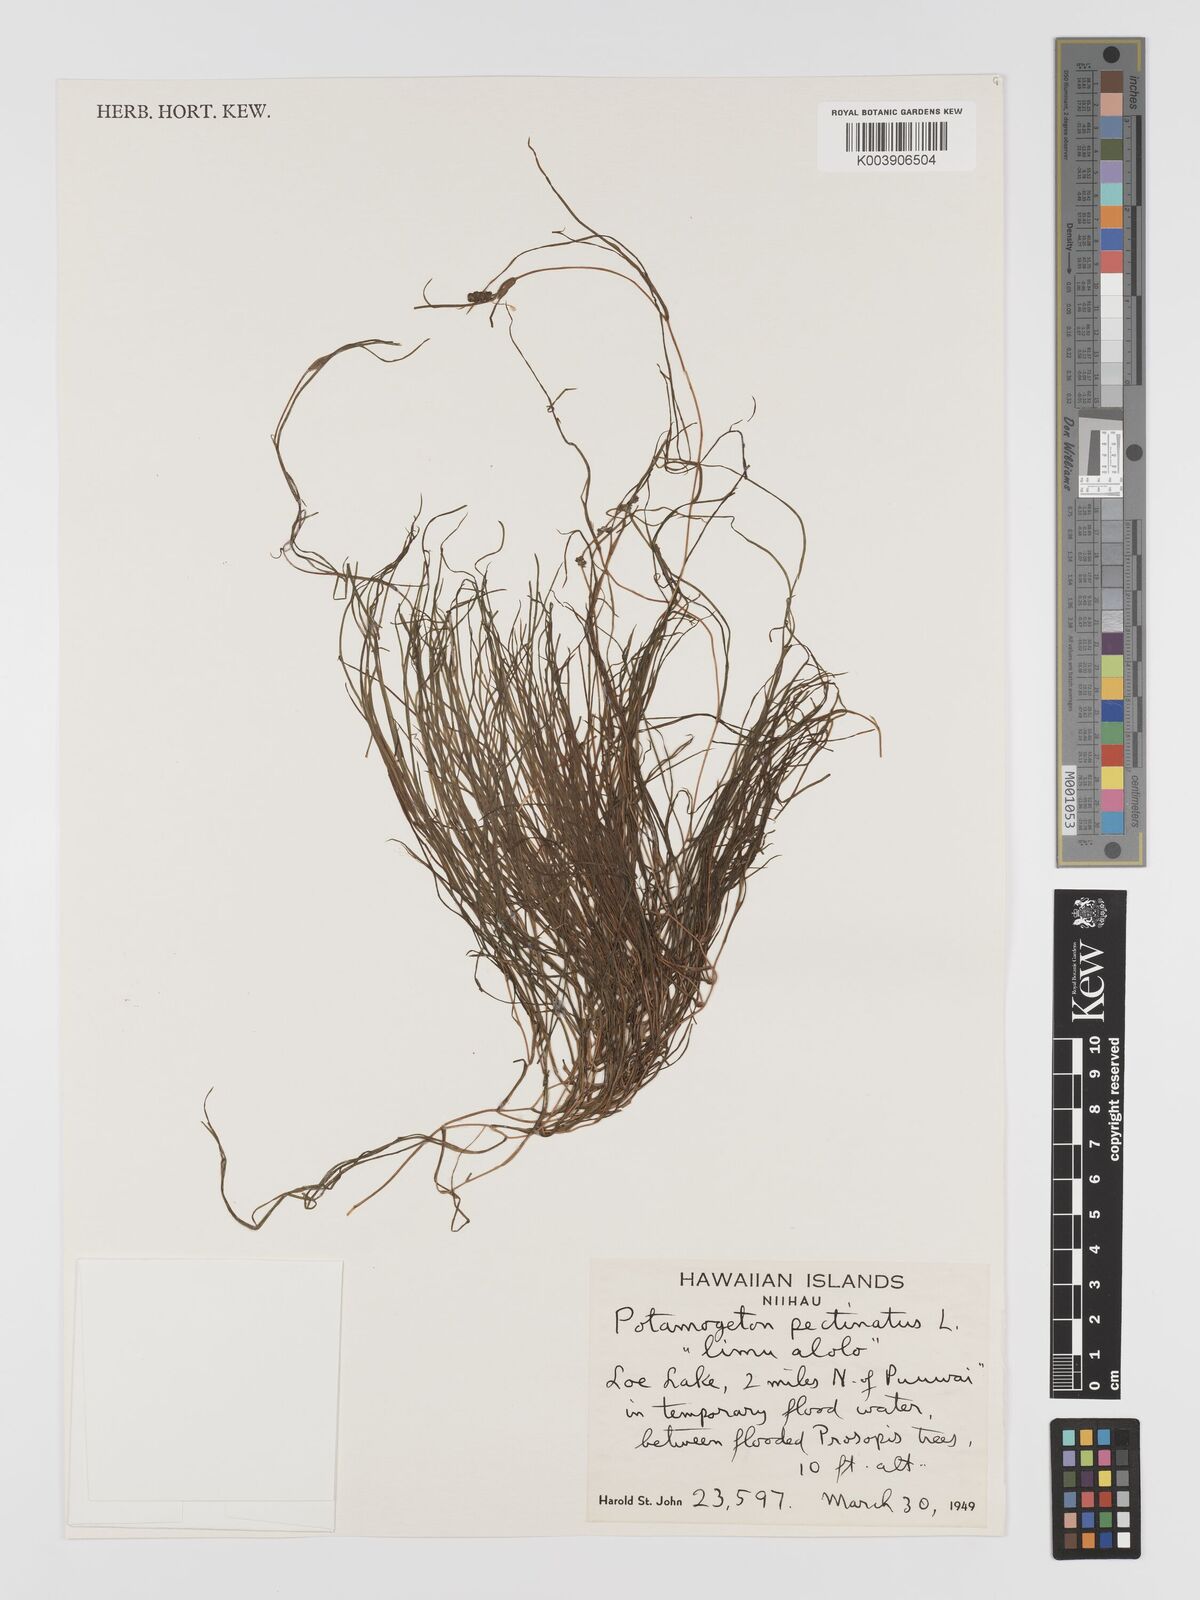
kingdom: Plantae
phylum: Tracheophyta
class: Liliopsida
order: Alismatales
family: Potamogetonaceae
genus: Stuckenia
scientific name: Stuckenia pectinata
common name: Sago pondweed
